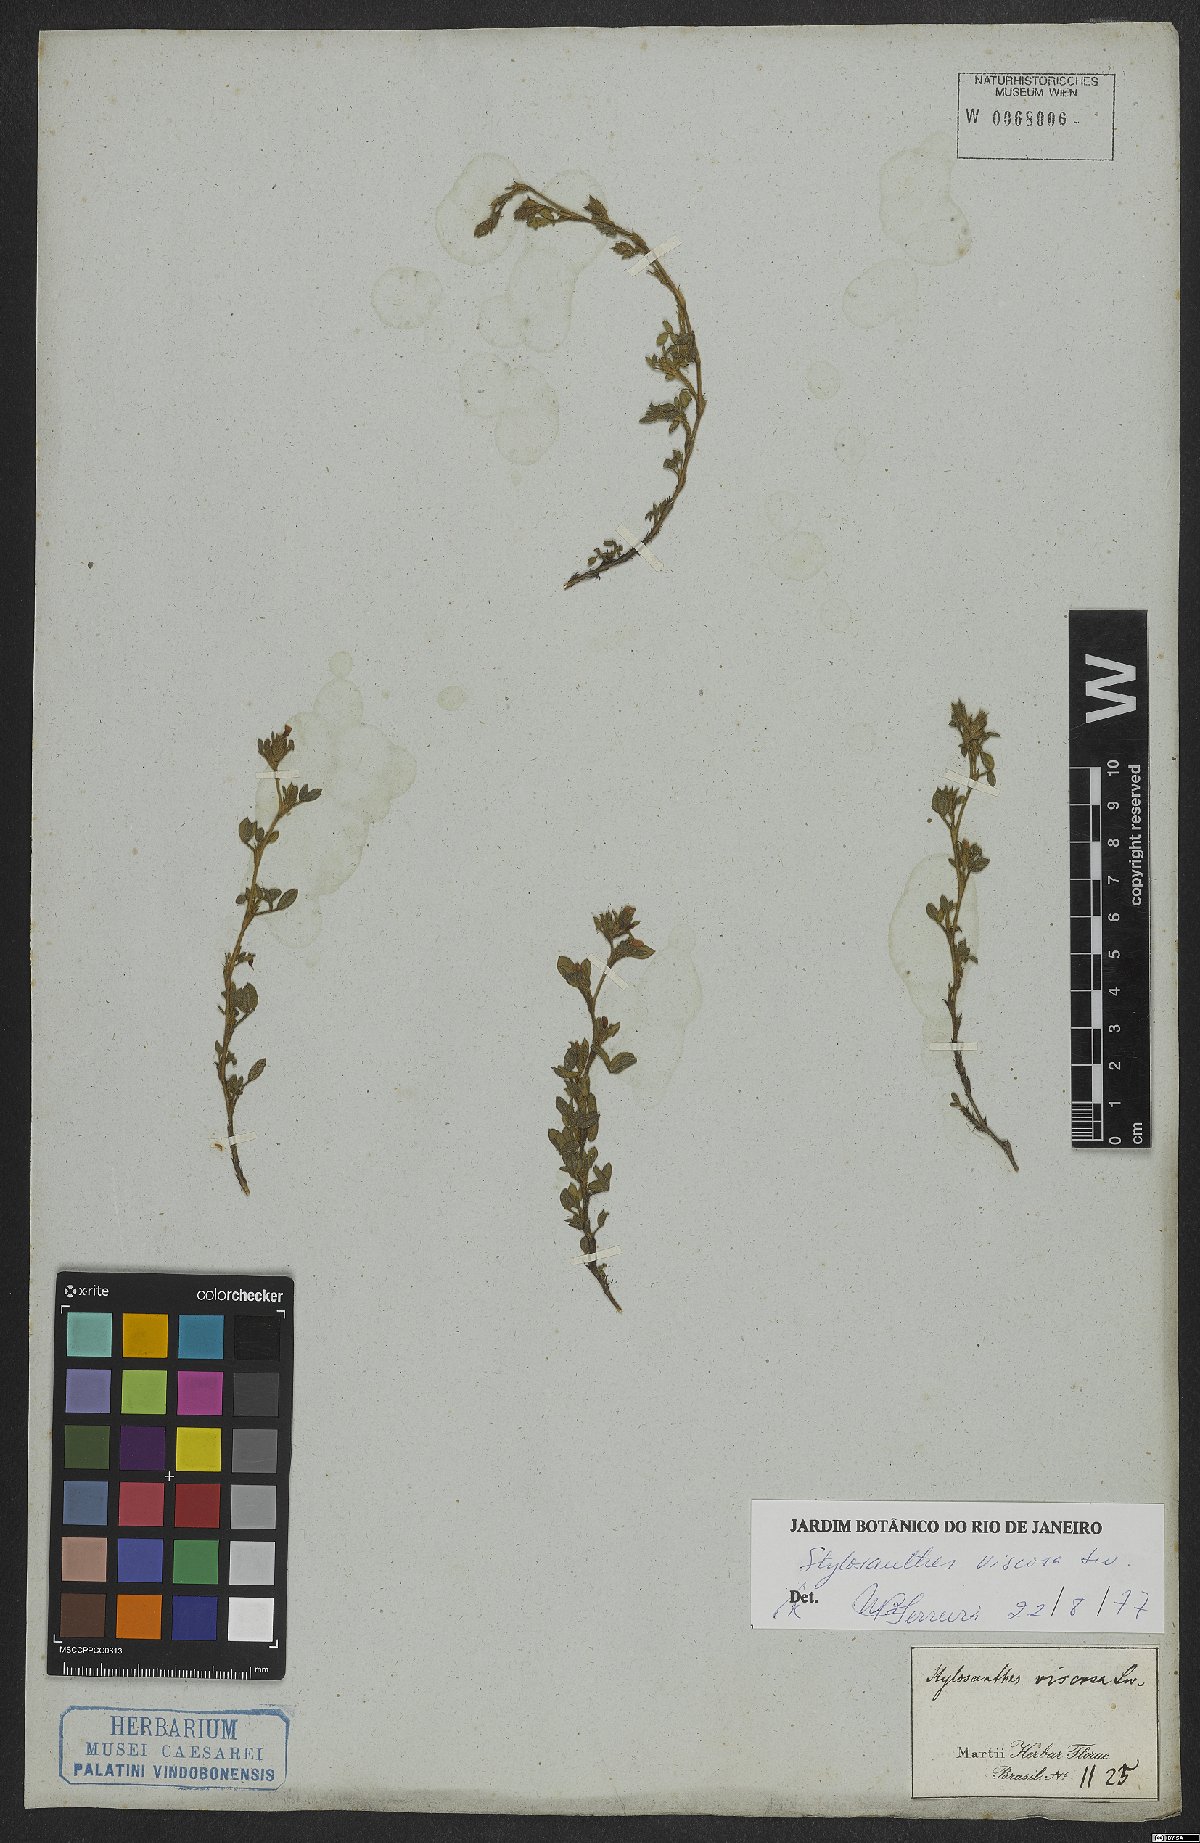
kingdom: Plantae
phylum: Tracheophyta
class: Magnoliopsida
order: Fabales
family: Fabaceae
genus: Stylosanthes
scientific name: Stylosanthes viscosa
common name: Viscid pencil-flower
